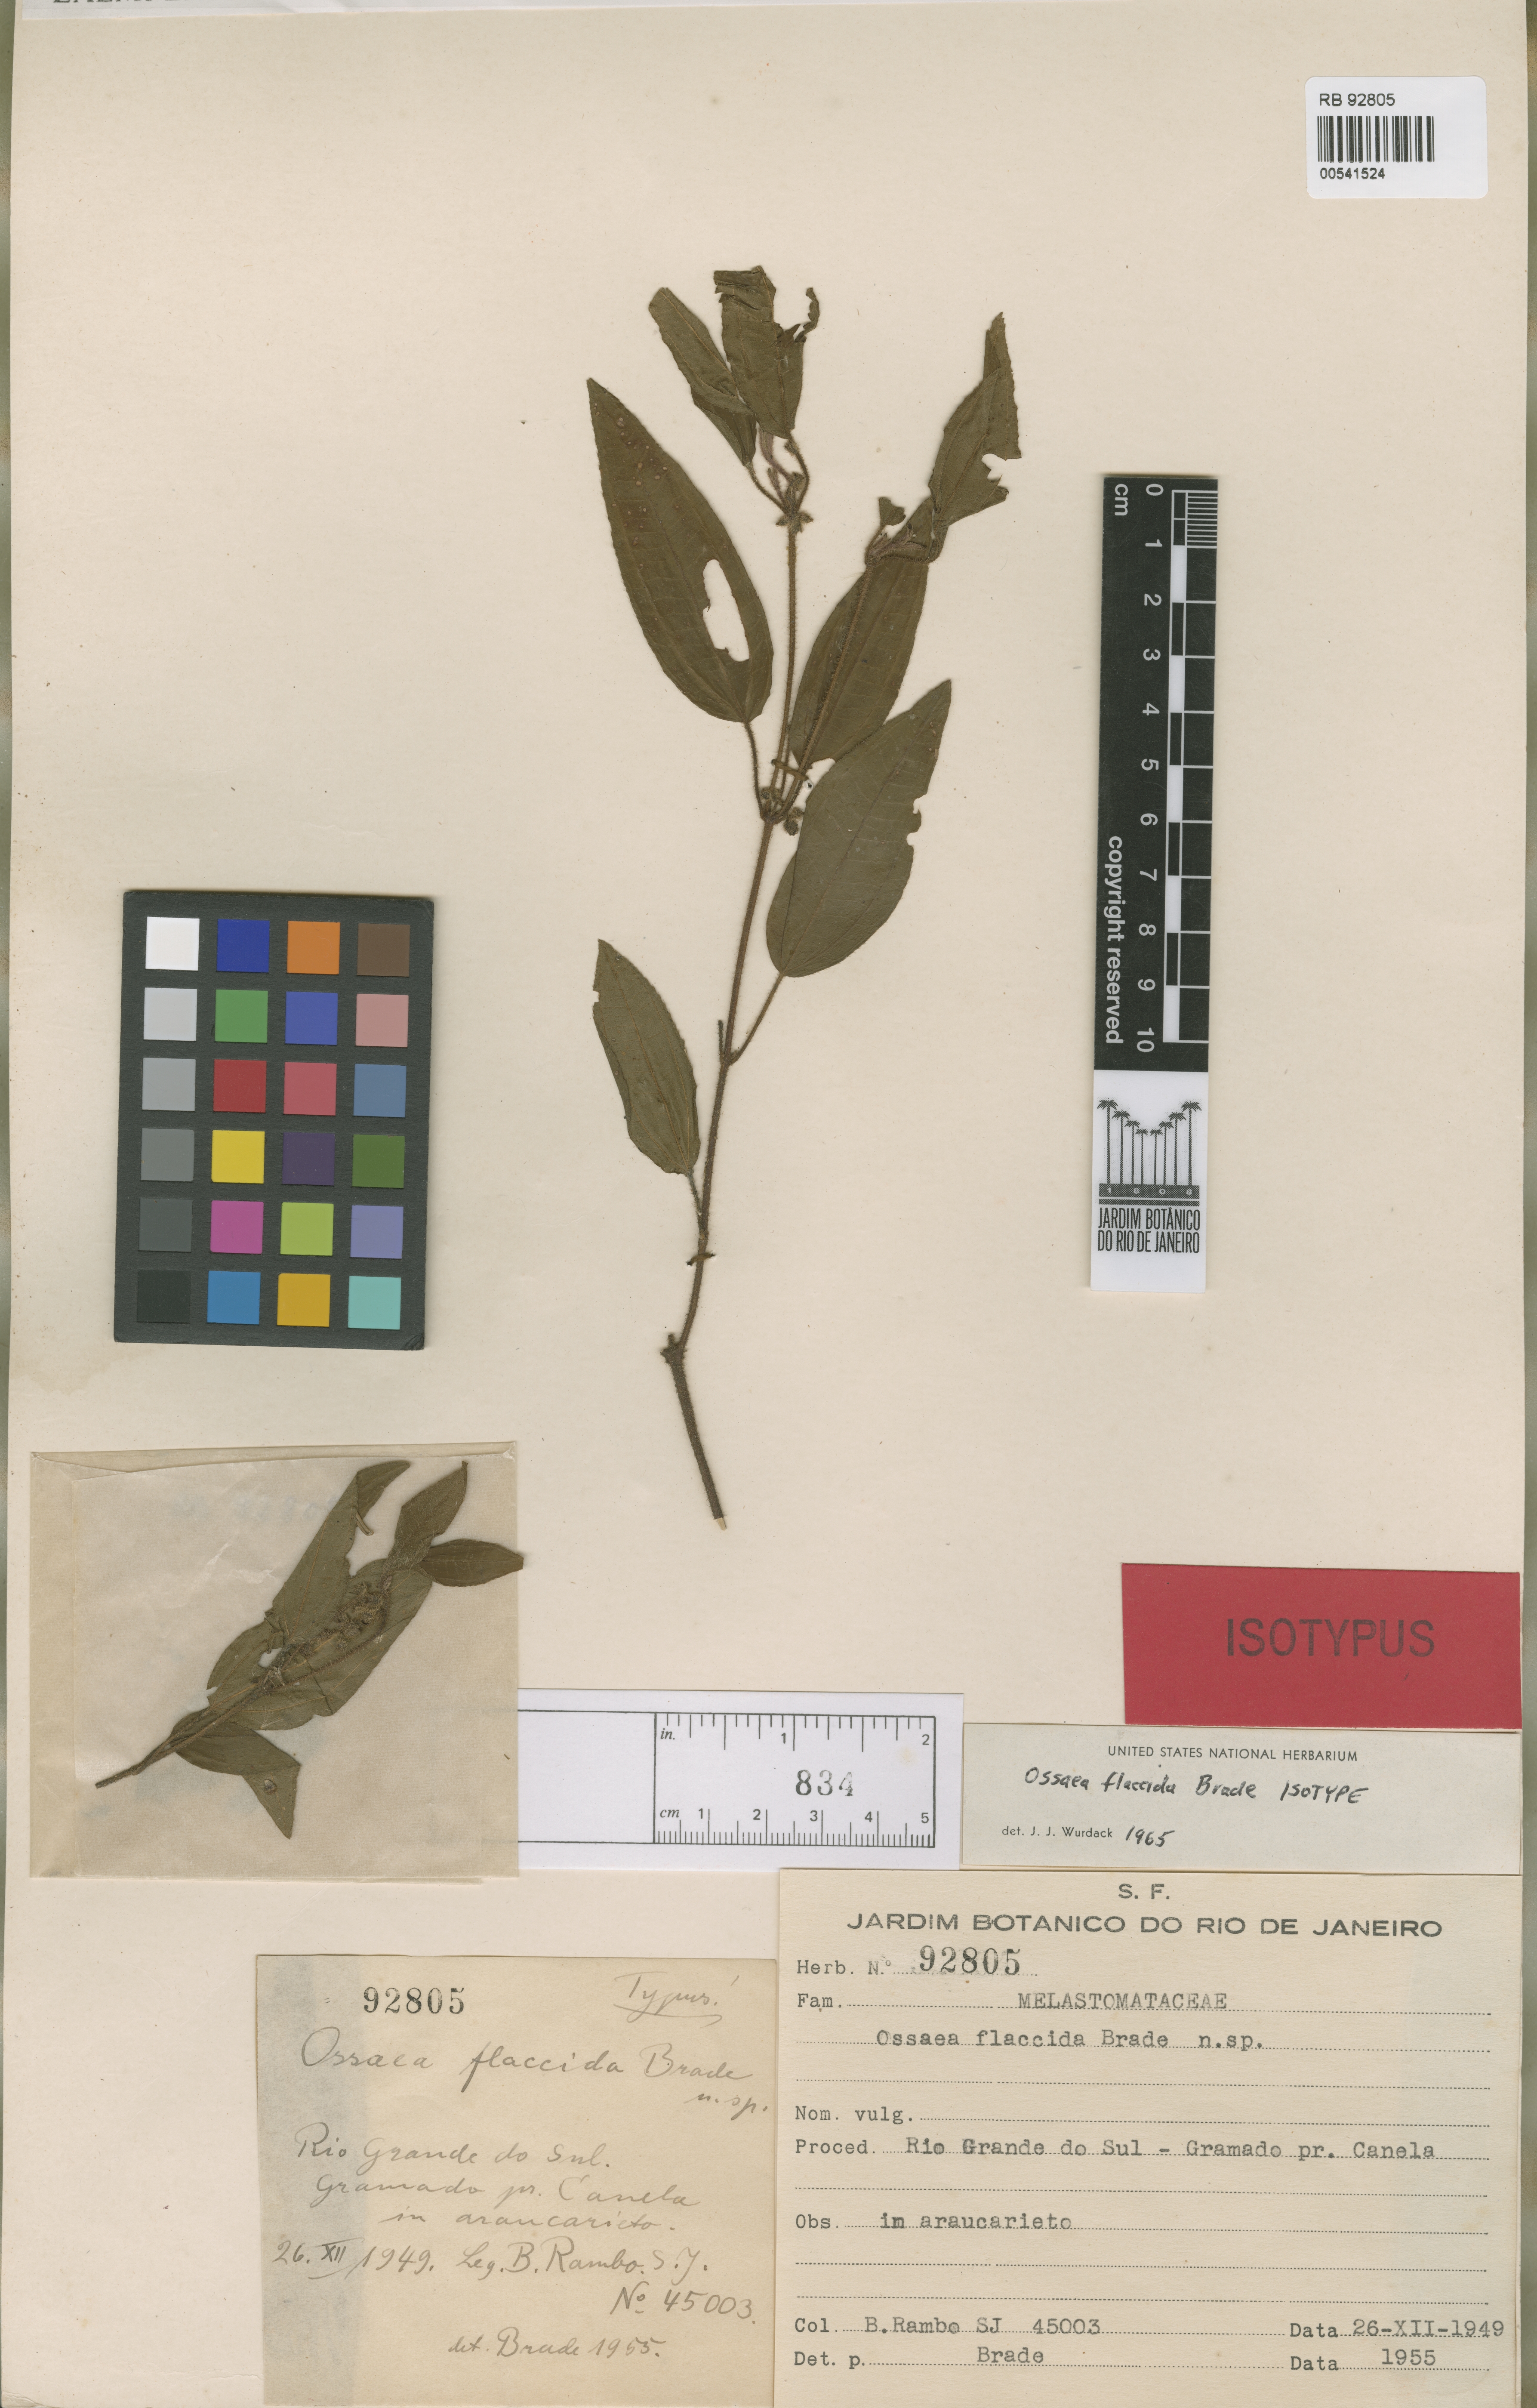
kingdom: Plantae
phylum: Tracheophyta
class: Magnoliopsida
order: Myrtales
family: Melastomataceae
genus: Miconia
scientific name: Miconia flaccida
